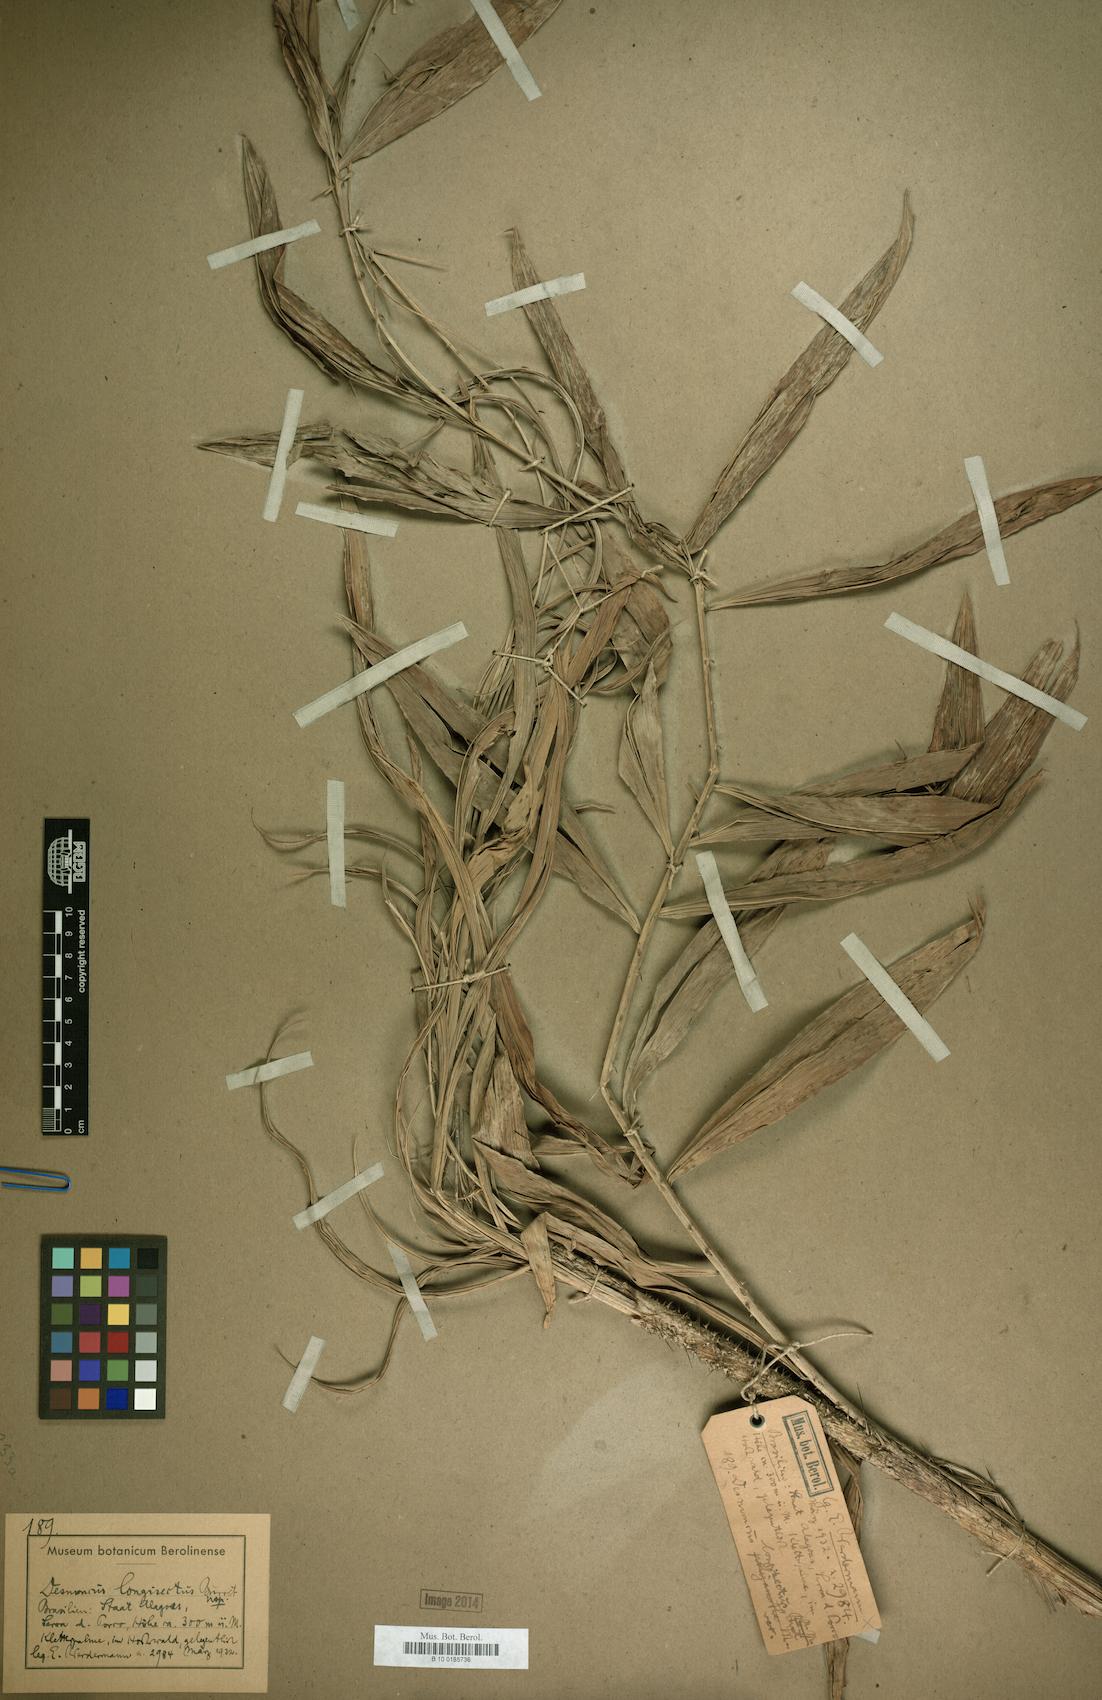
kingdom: Plantae
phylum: Tracheophyta
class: Liliopsida
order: Arecales
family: Arecaceae
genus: Desmoncus
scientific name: Desmoncus polyacanthos
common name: Suriname bramble palm
